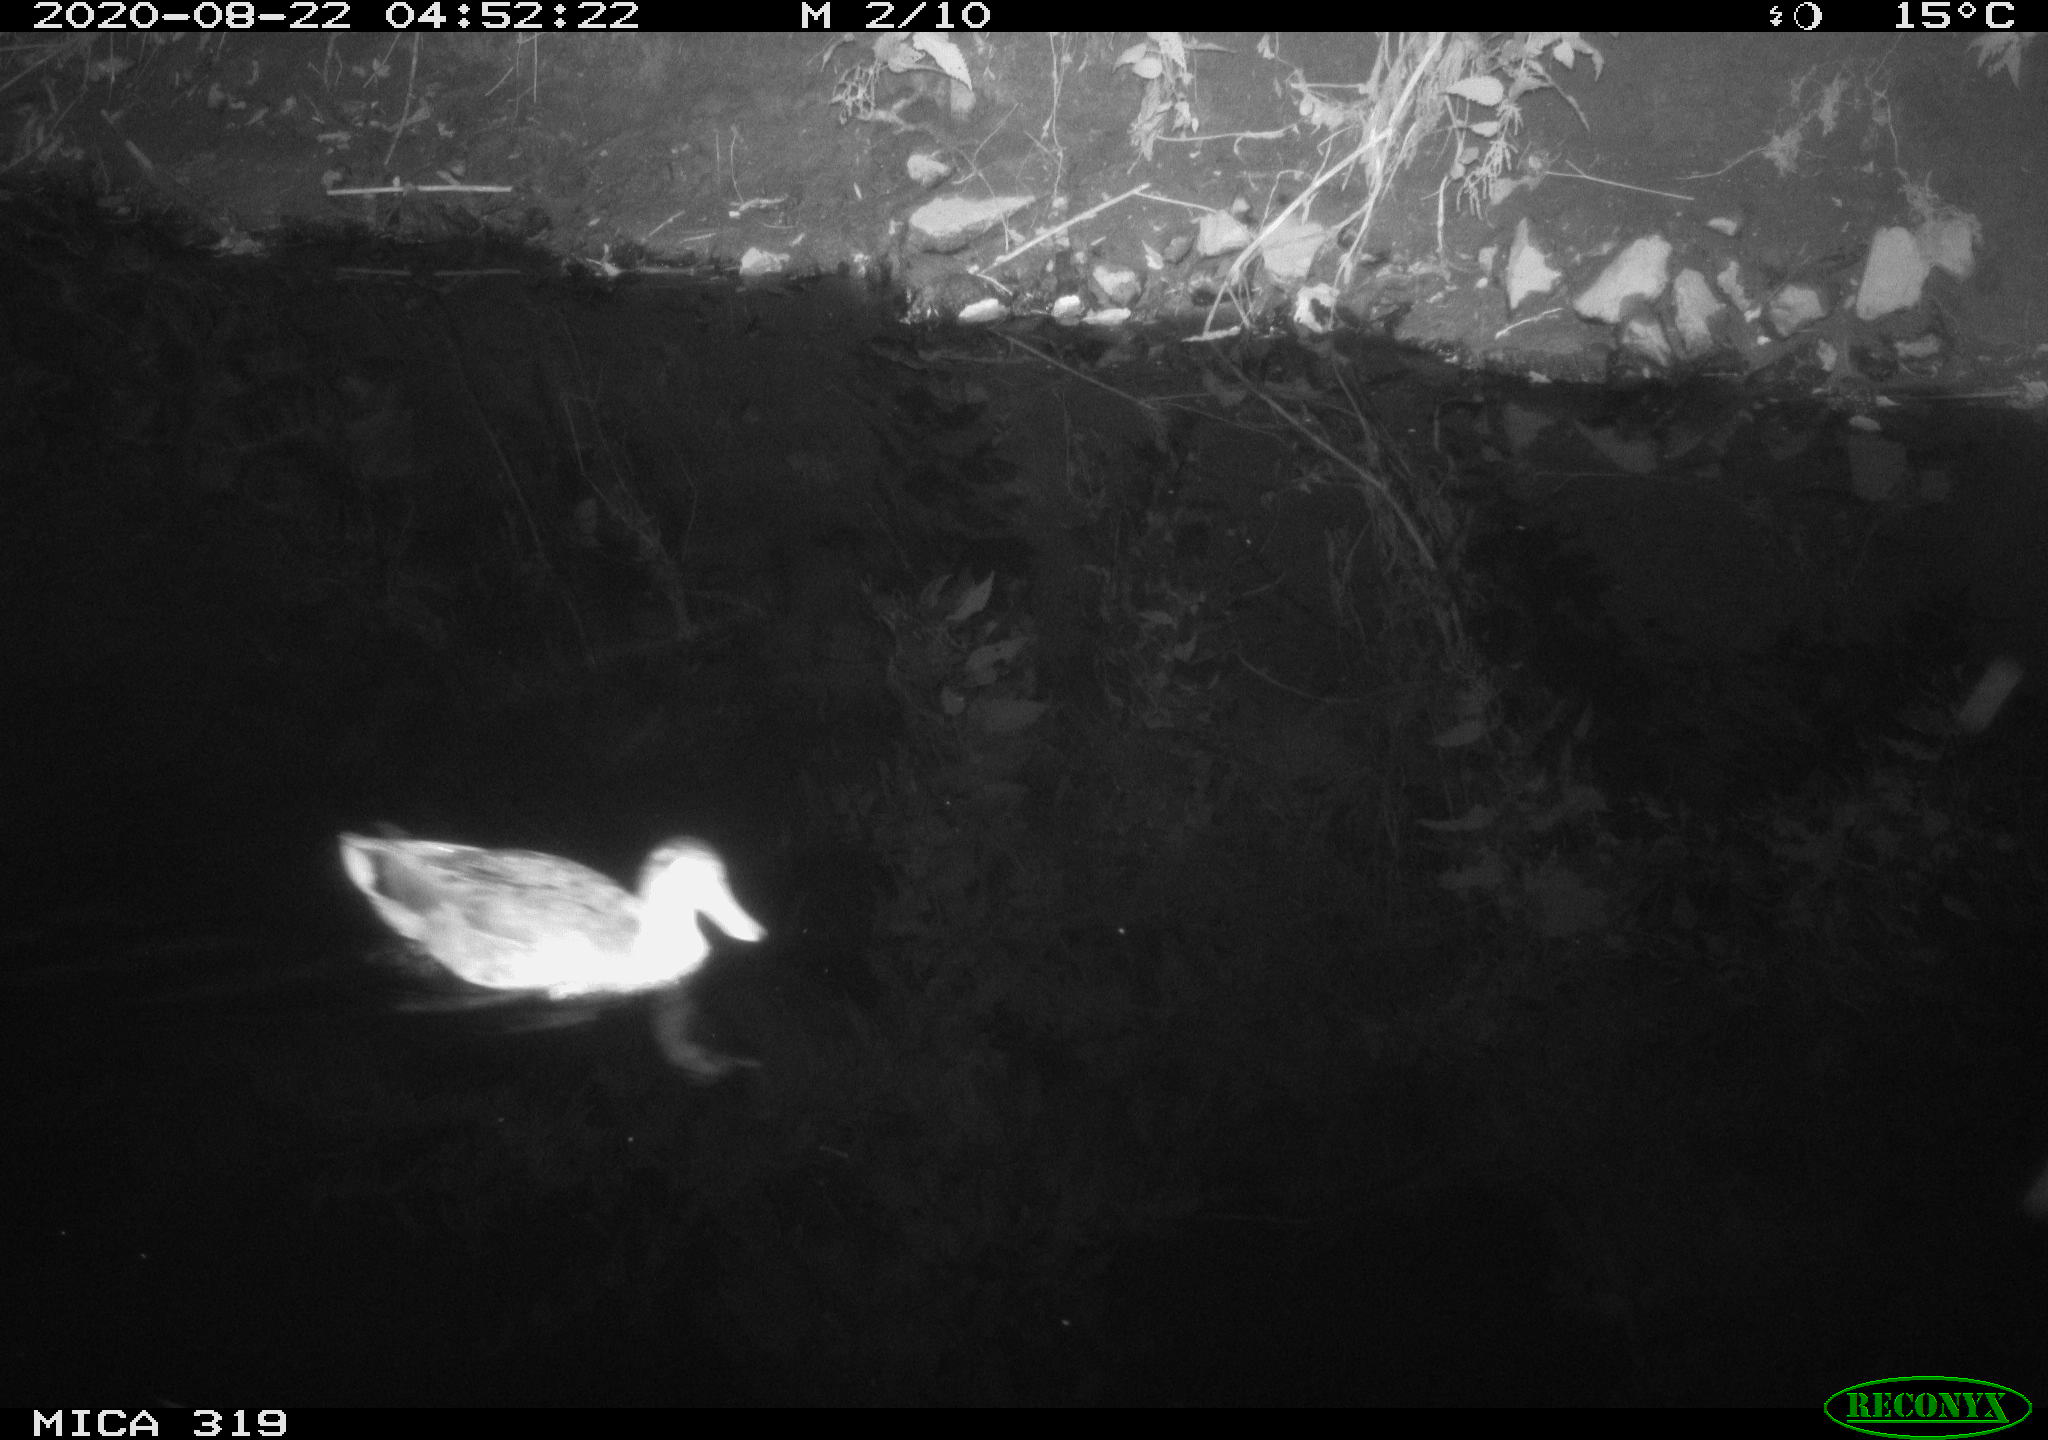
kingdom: Animalia
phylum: Chordata
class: Aves
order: Anseriformes
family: Anatidae
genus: Anas
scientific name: Anas platyrhynchos
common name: Mallard
